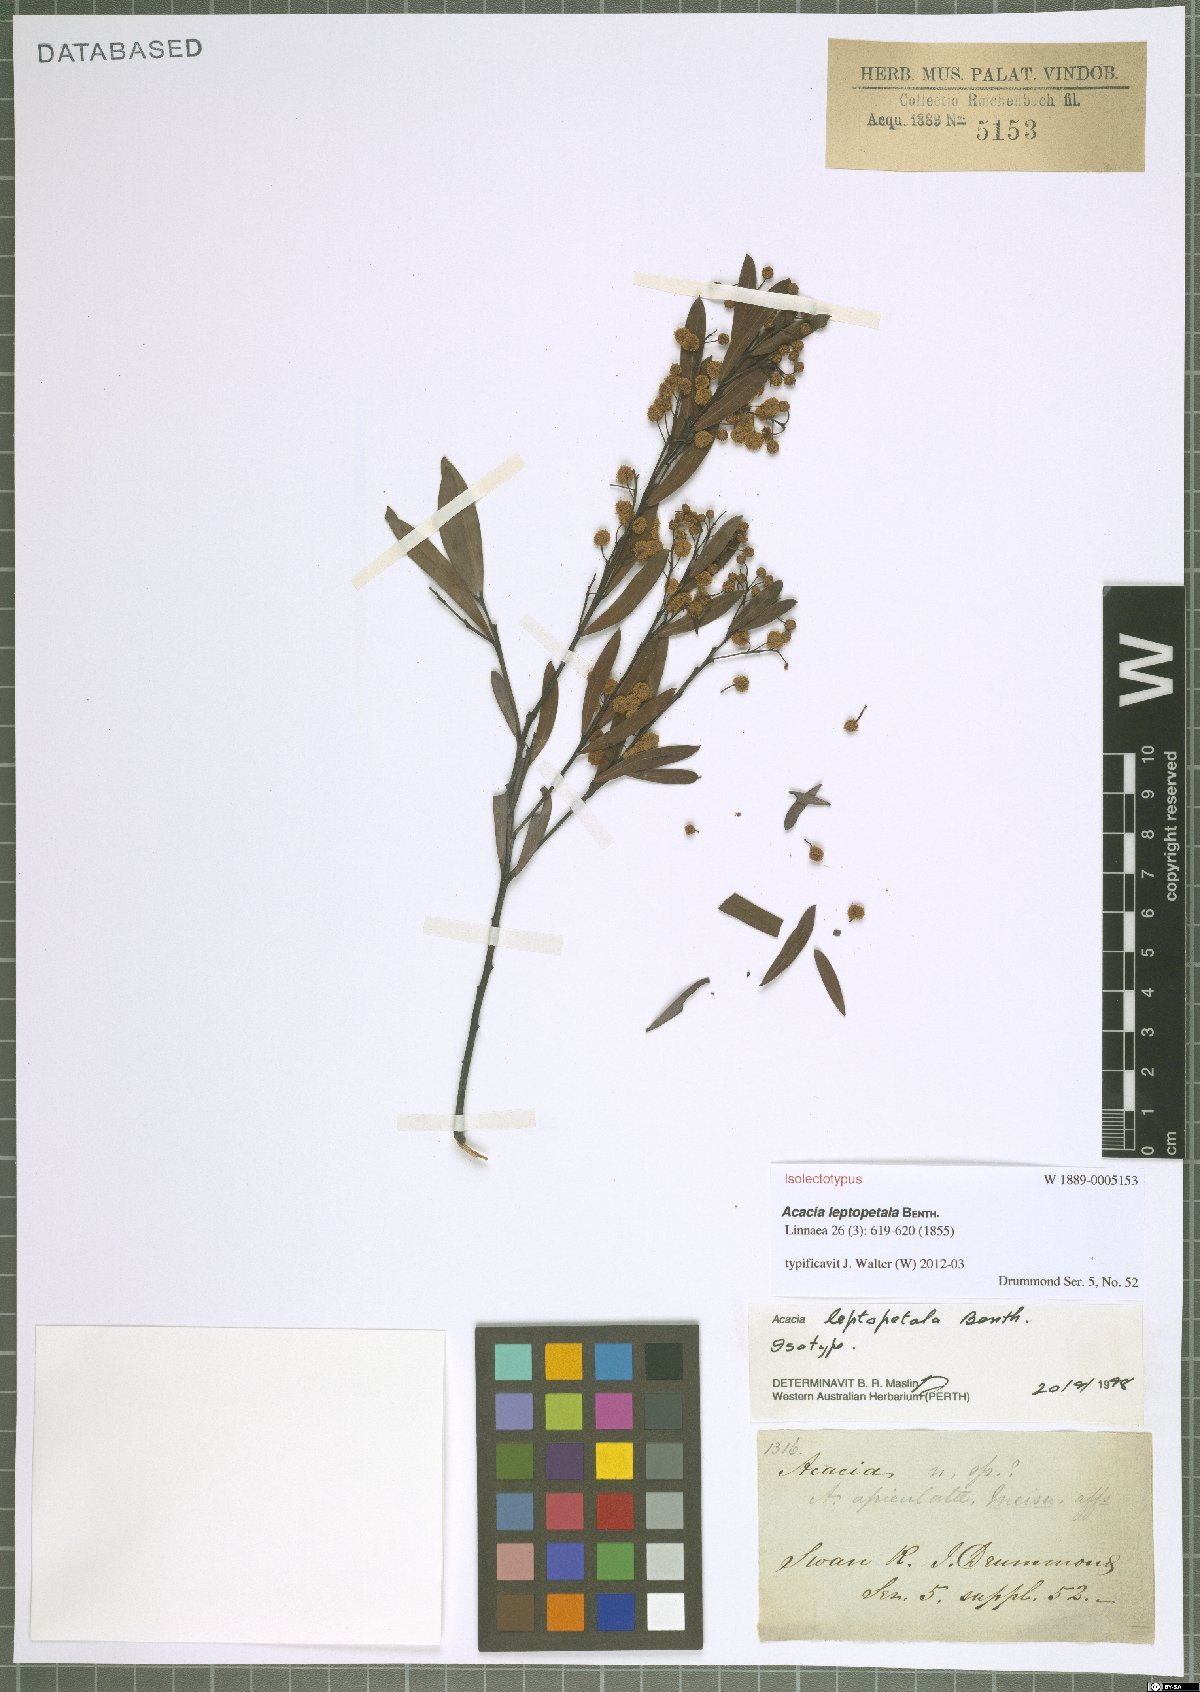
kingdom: Plantae
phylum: Tracheophyta
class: Magnoliopsida
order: Fabales
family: Fabaceae
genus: Acacia
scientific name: Acacia leptopetala
